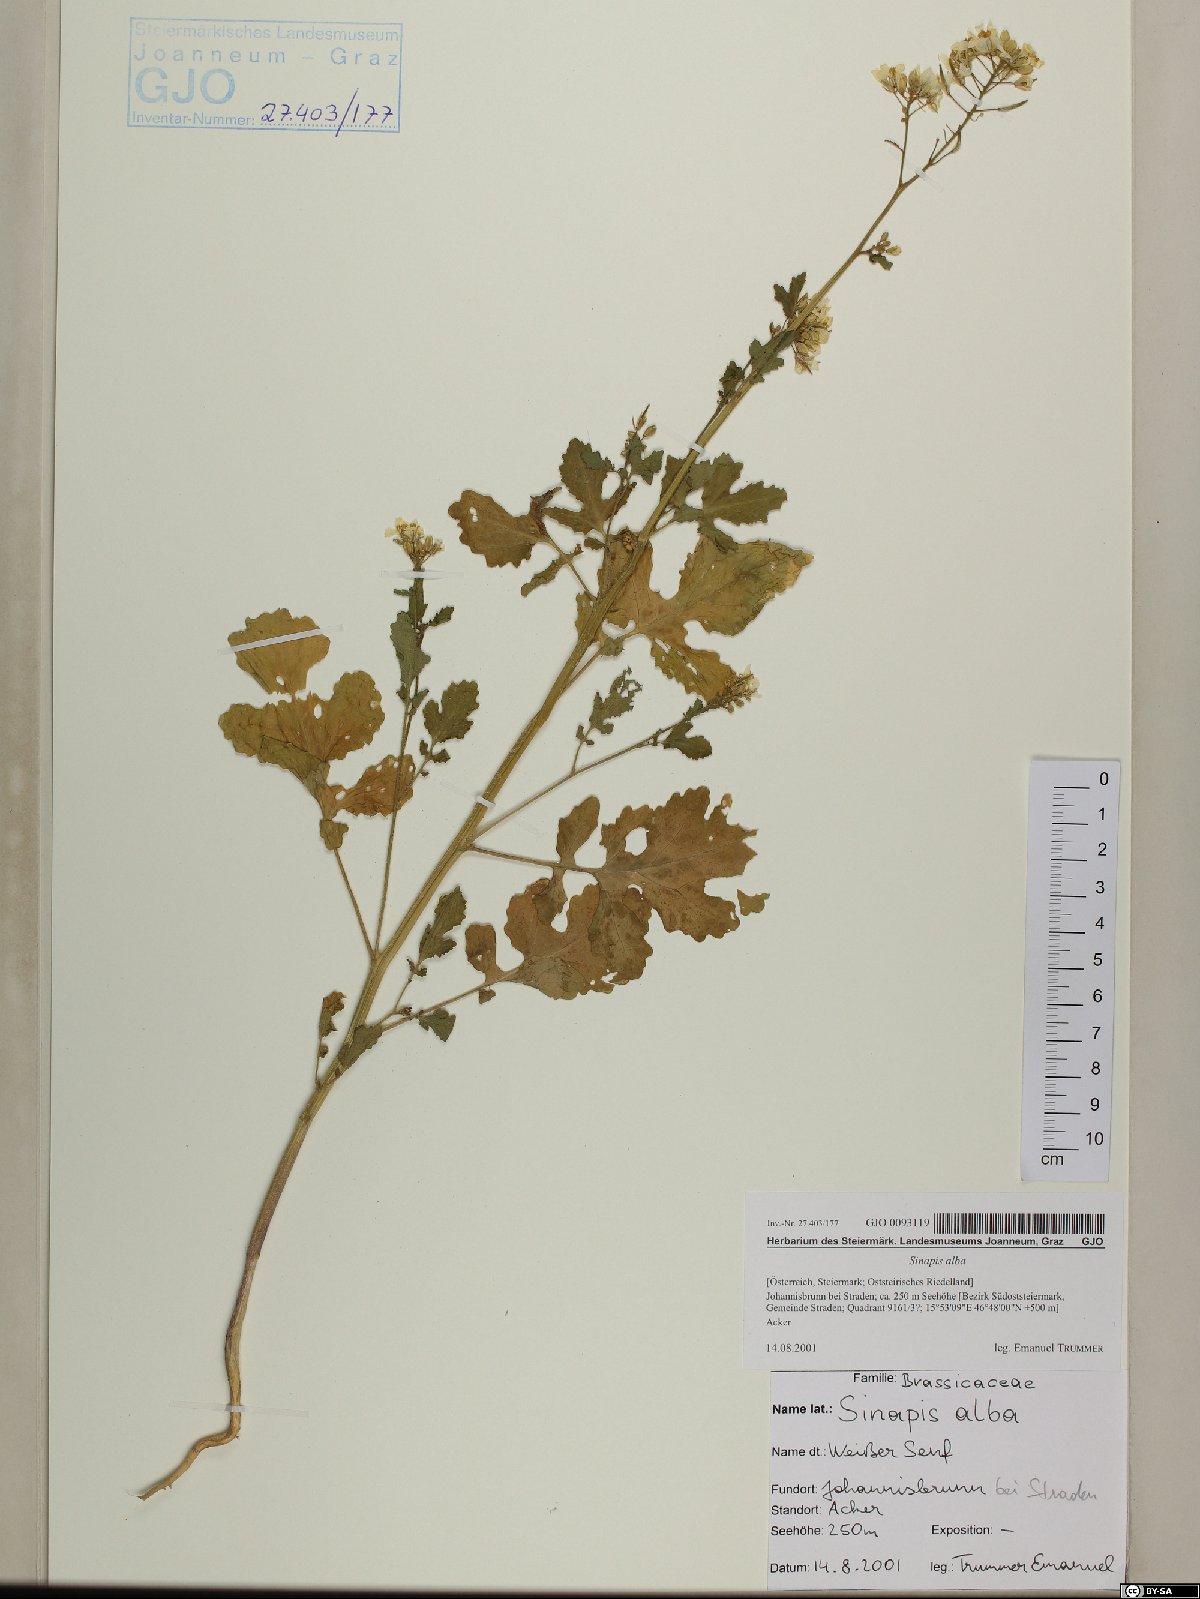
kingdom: Plantae
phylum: Tracheophyta
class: Magnoliopsida
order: Brassicales
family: Brassicaceae
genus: Sinapis
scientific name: Sinapis alba
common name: White mustard
